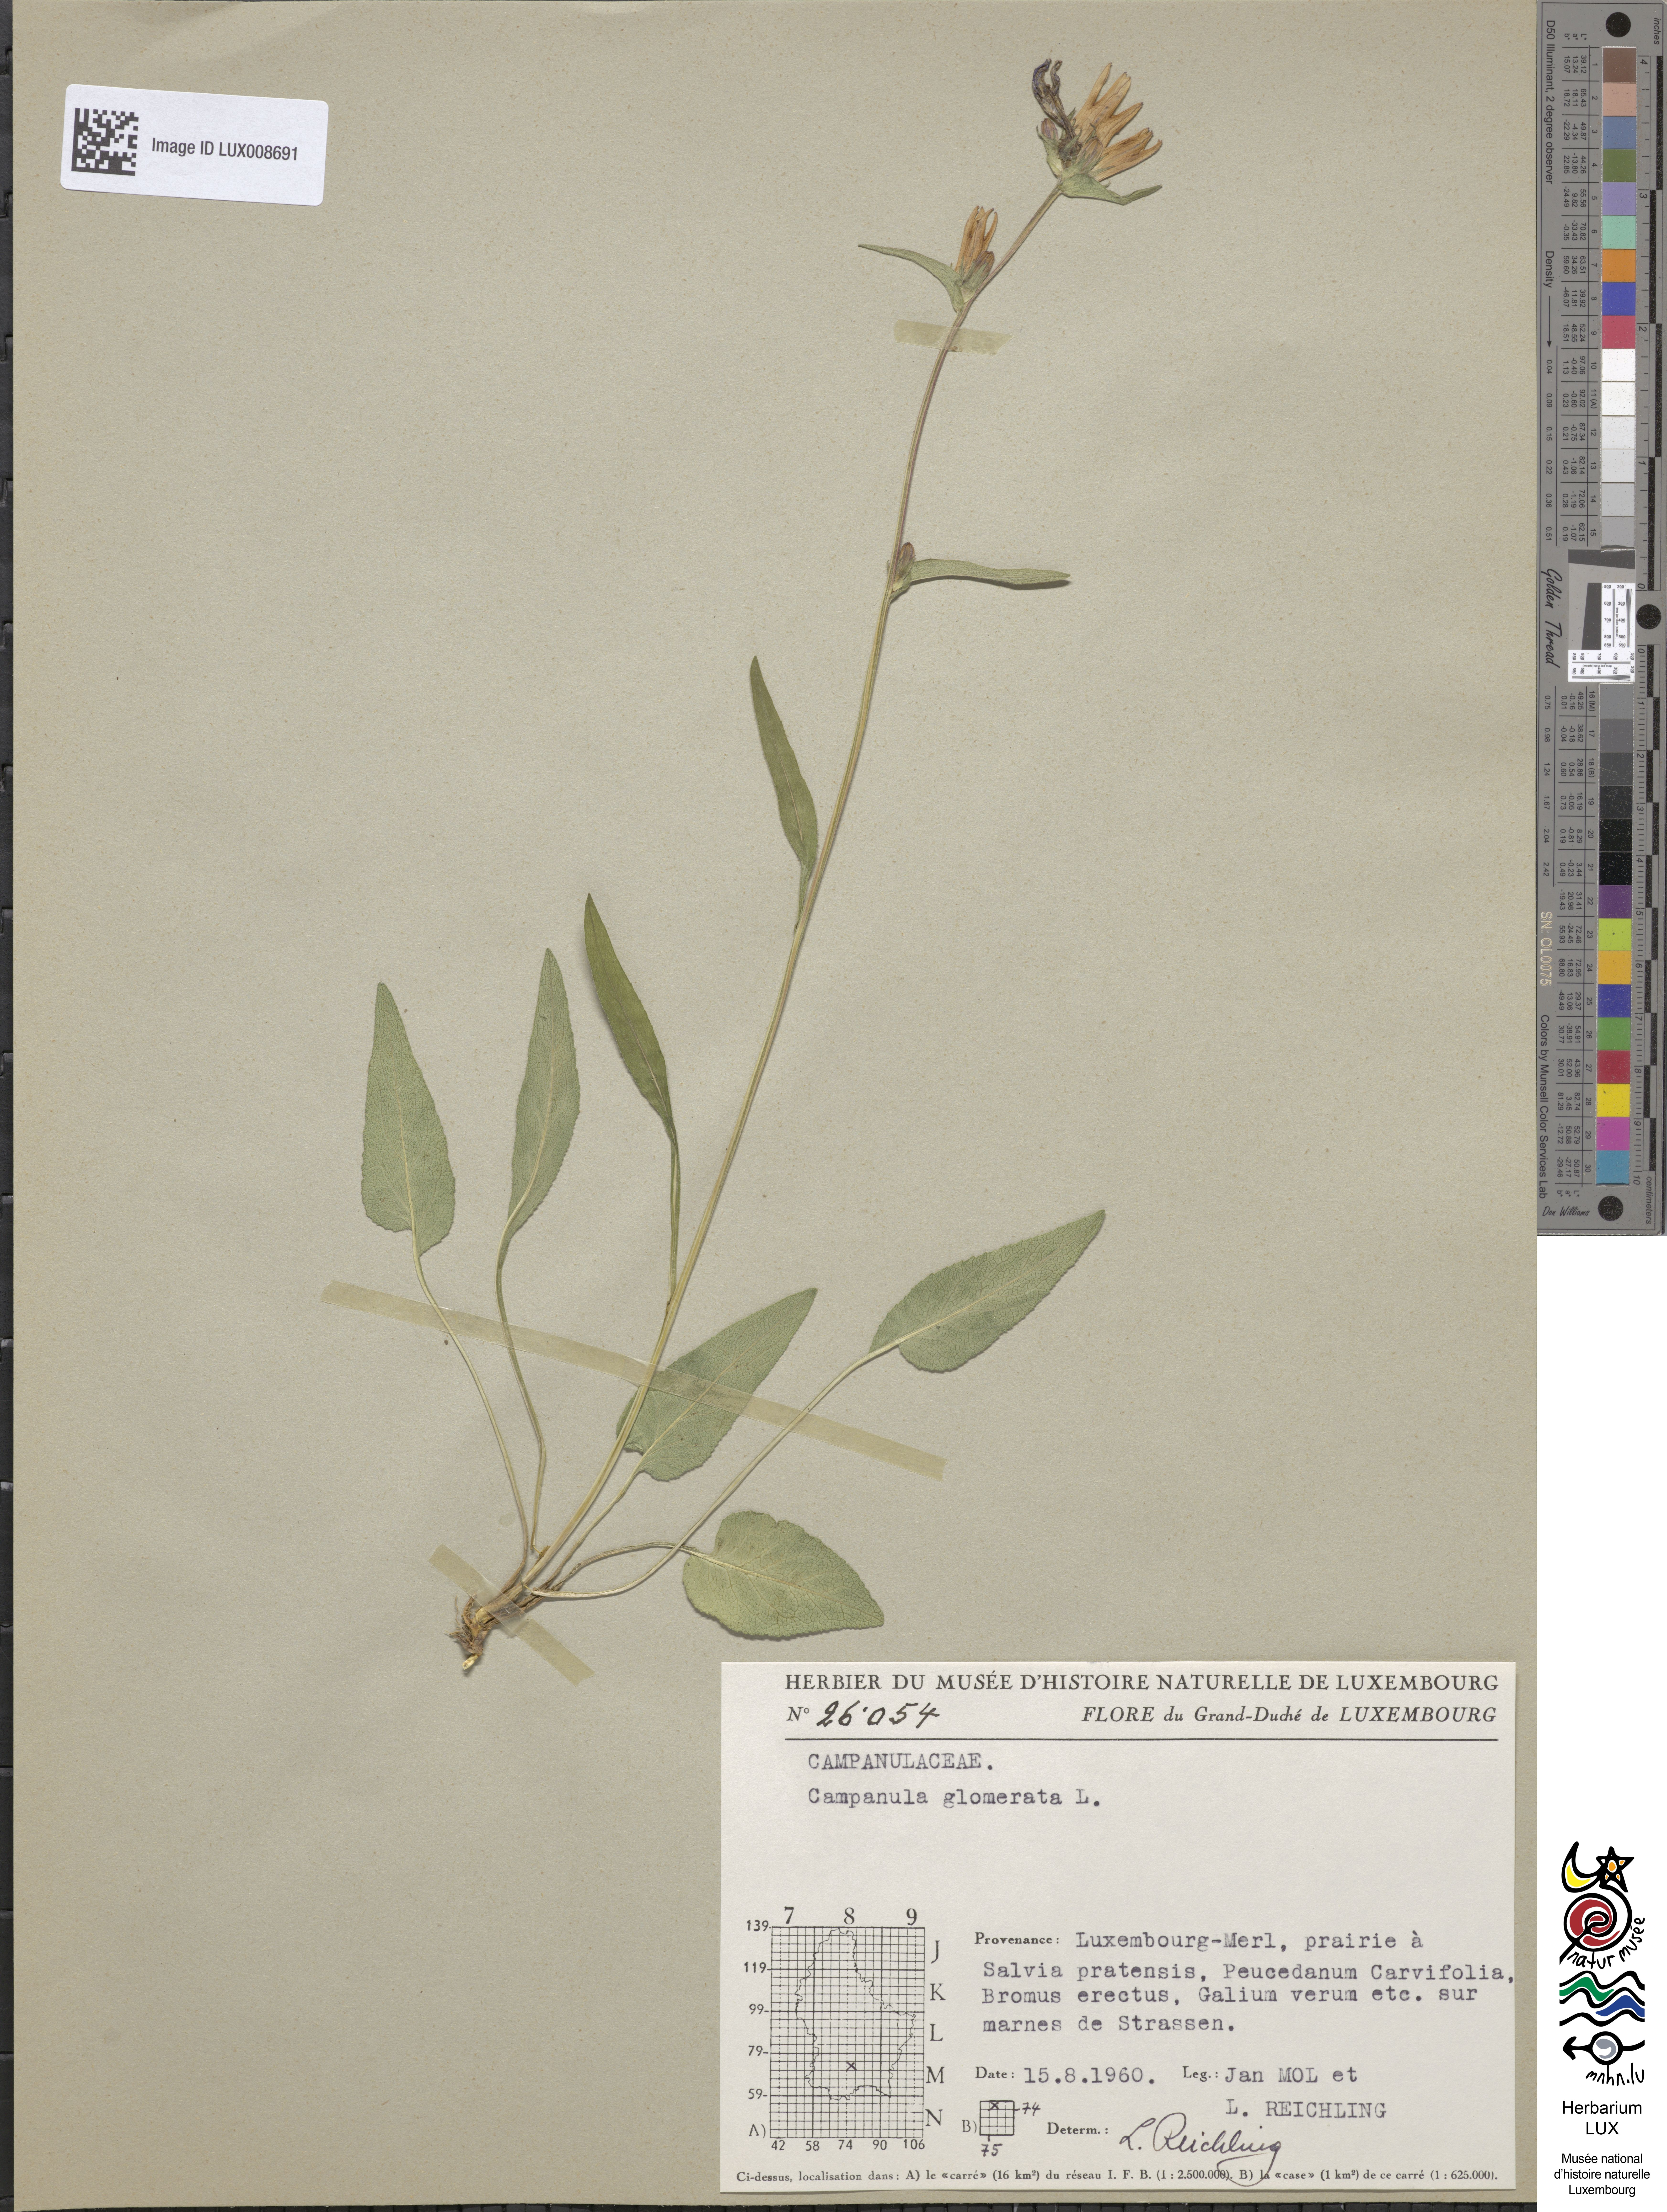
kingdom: Plantae
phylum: Tracheophyta
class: Magnoliopsida
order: Asterales
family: Campanulaceae
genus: Campanula
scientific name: Campanula glomerata
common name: Clustered bellflower
